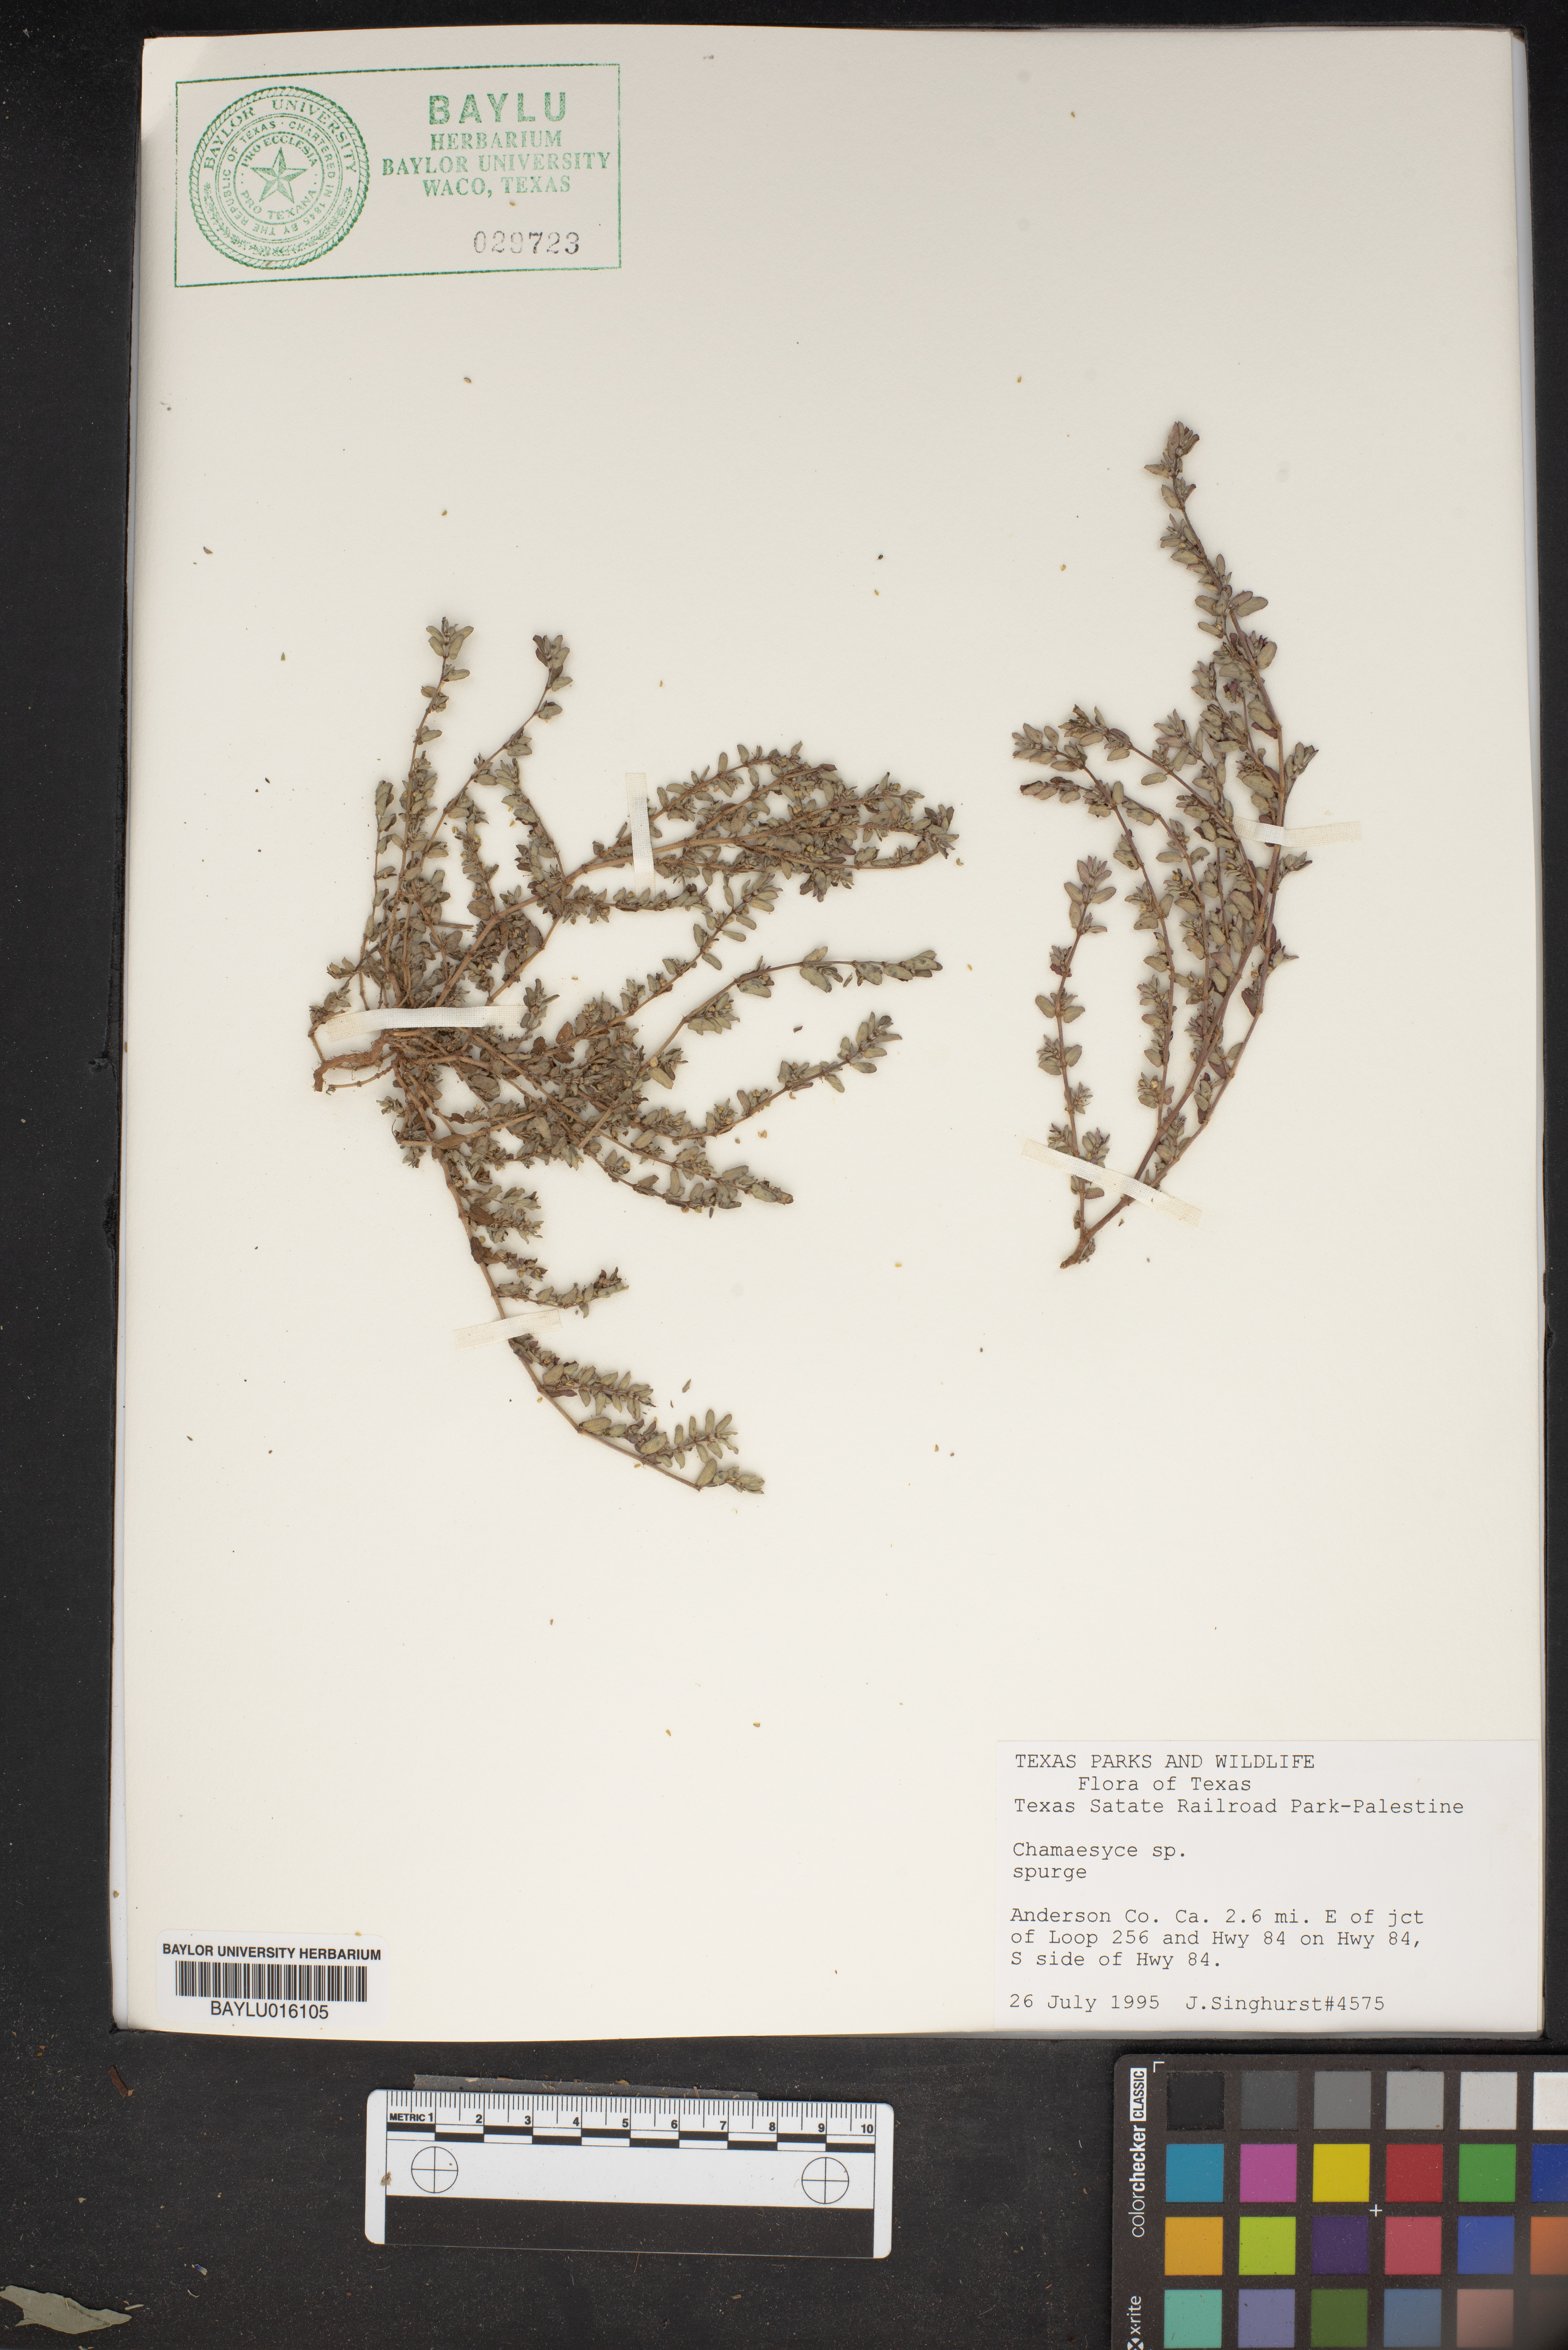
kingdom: Plantae
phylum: Tracheophyta
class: Magnoliopsida
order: Malpighiales
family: Euphorbiaceae
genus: Euphorbia
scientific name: Euphorbia sparsiflora
